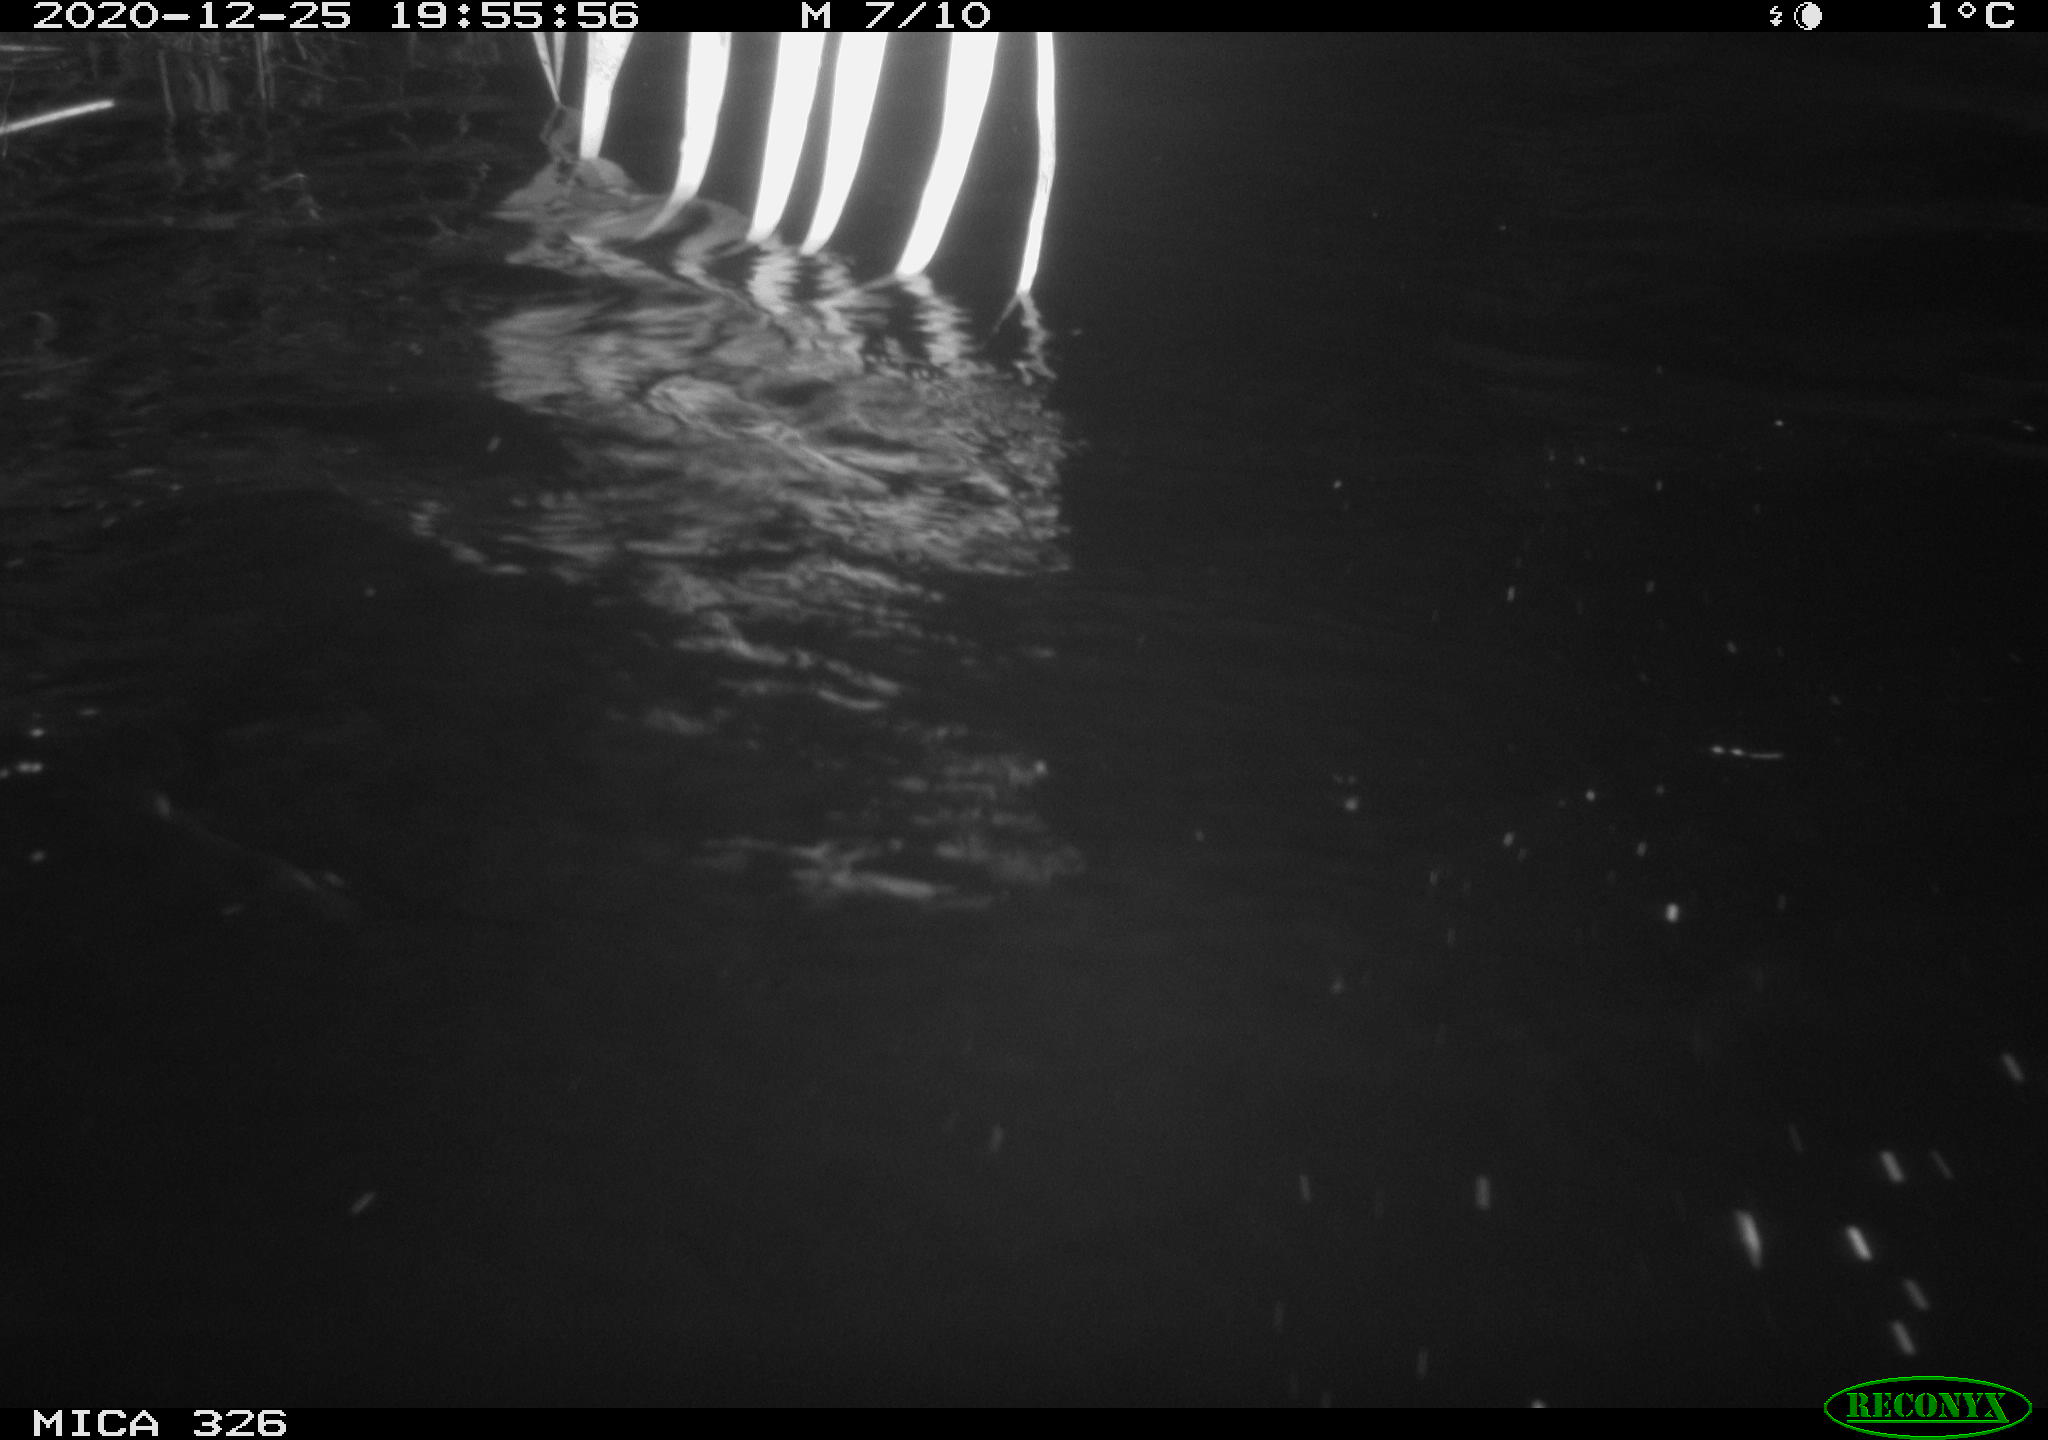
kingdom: Animalia
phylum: Chordata
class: Mammalia
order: Carnivora
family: Mustelidae
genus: Lutra
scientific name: Lutra lutra
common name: European otter
